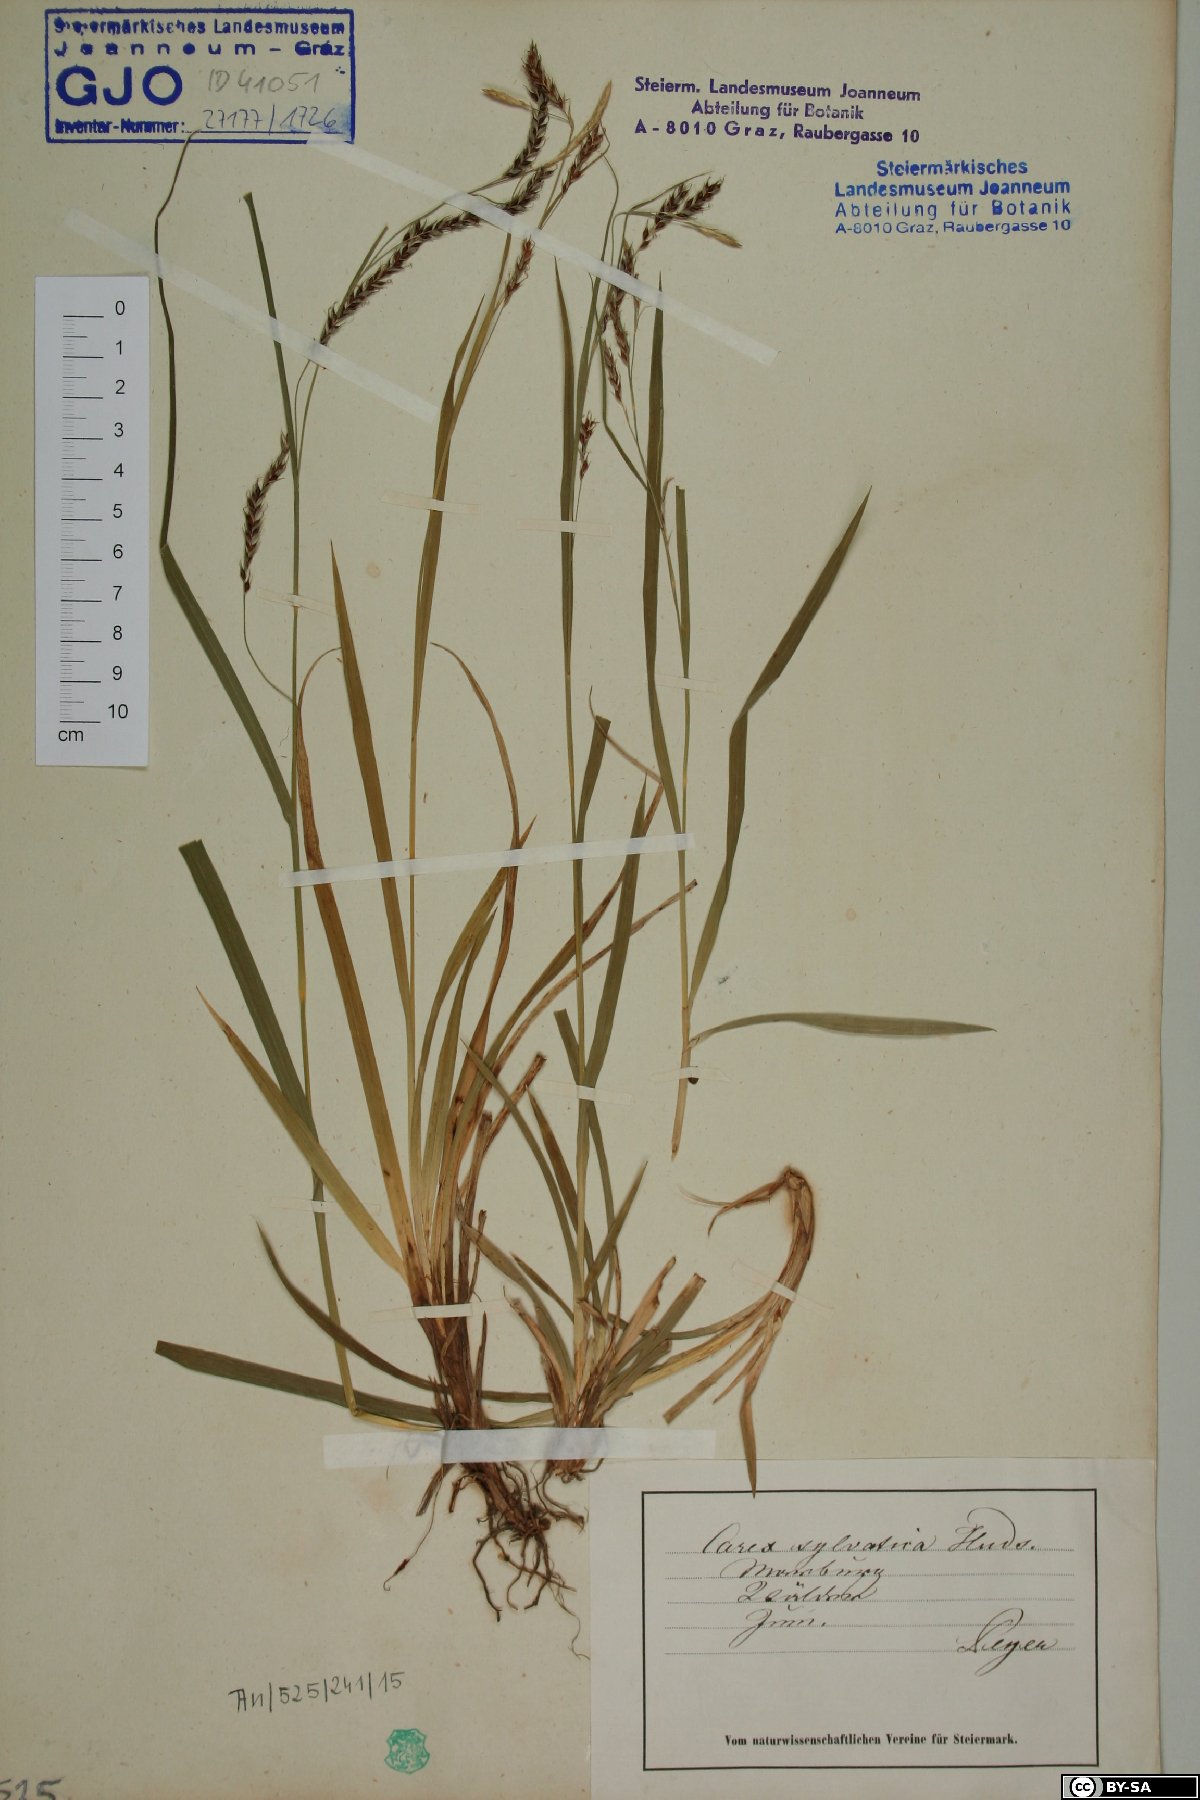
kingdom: Plantae
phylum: Tracheophyta
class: Liliopsida
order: Poales
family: Cyperaceae
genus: Carex
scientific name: Carex sylvatica
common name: Wood-sedge
